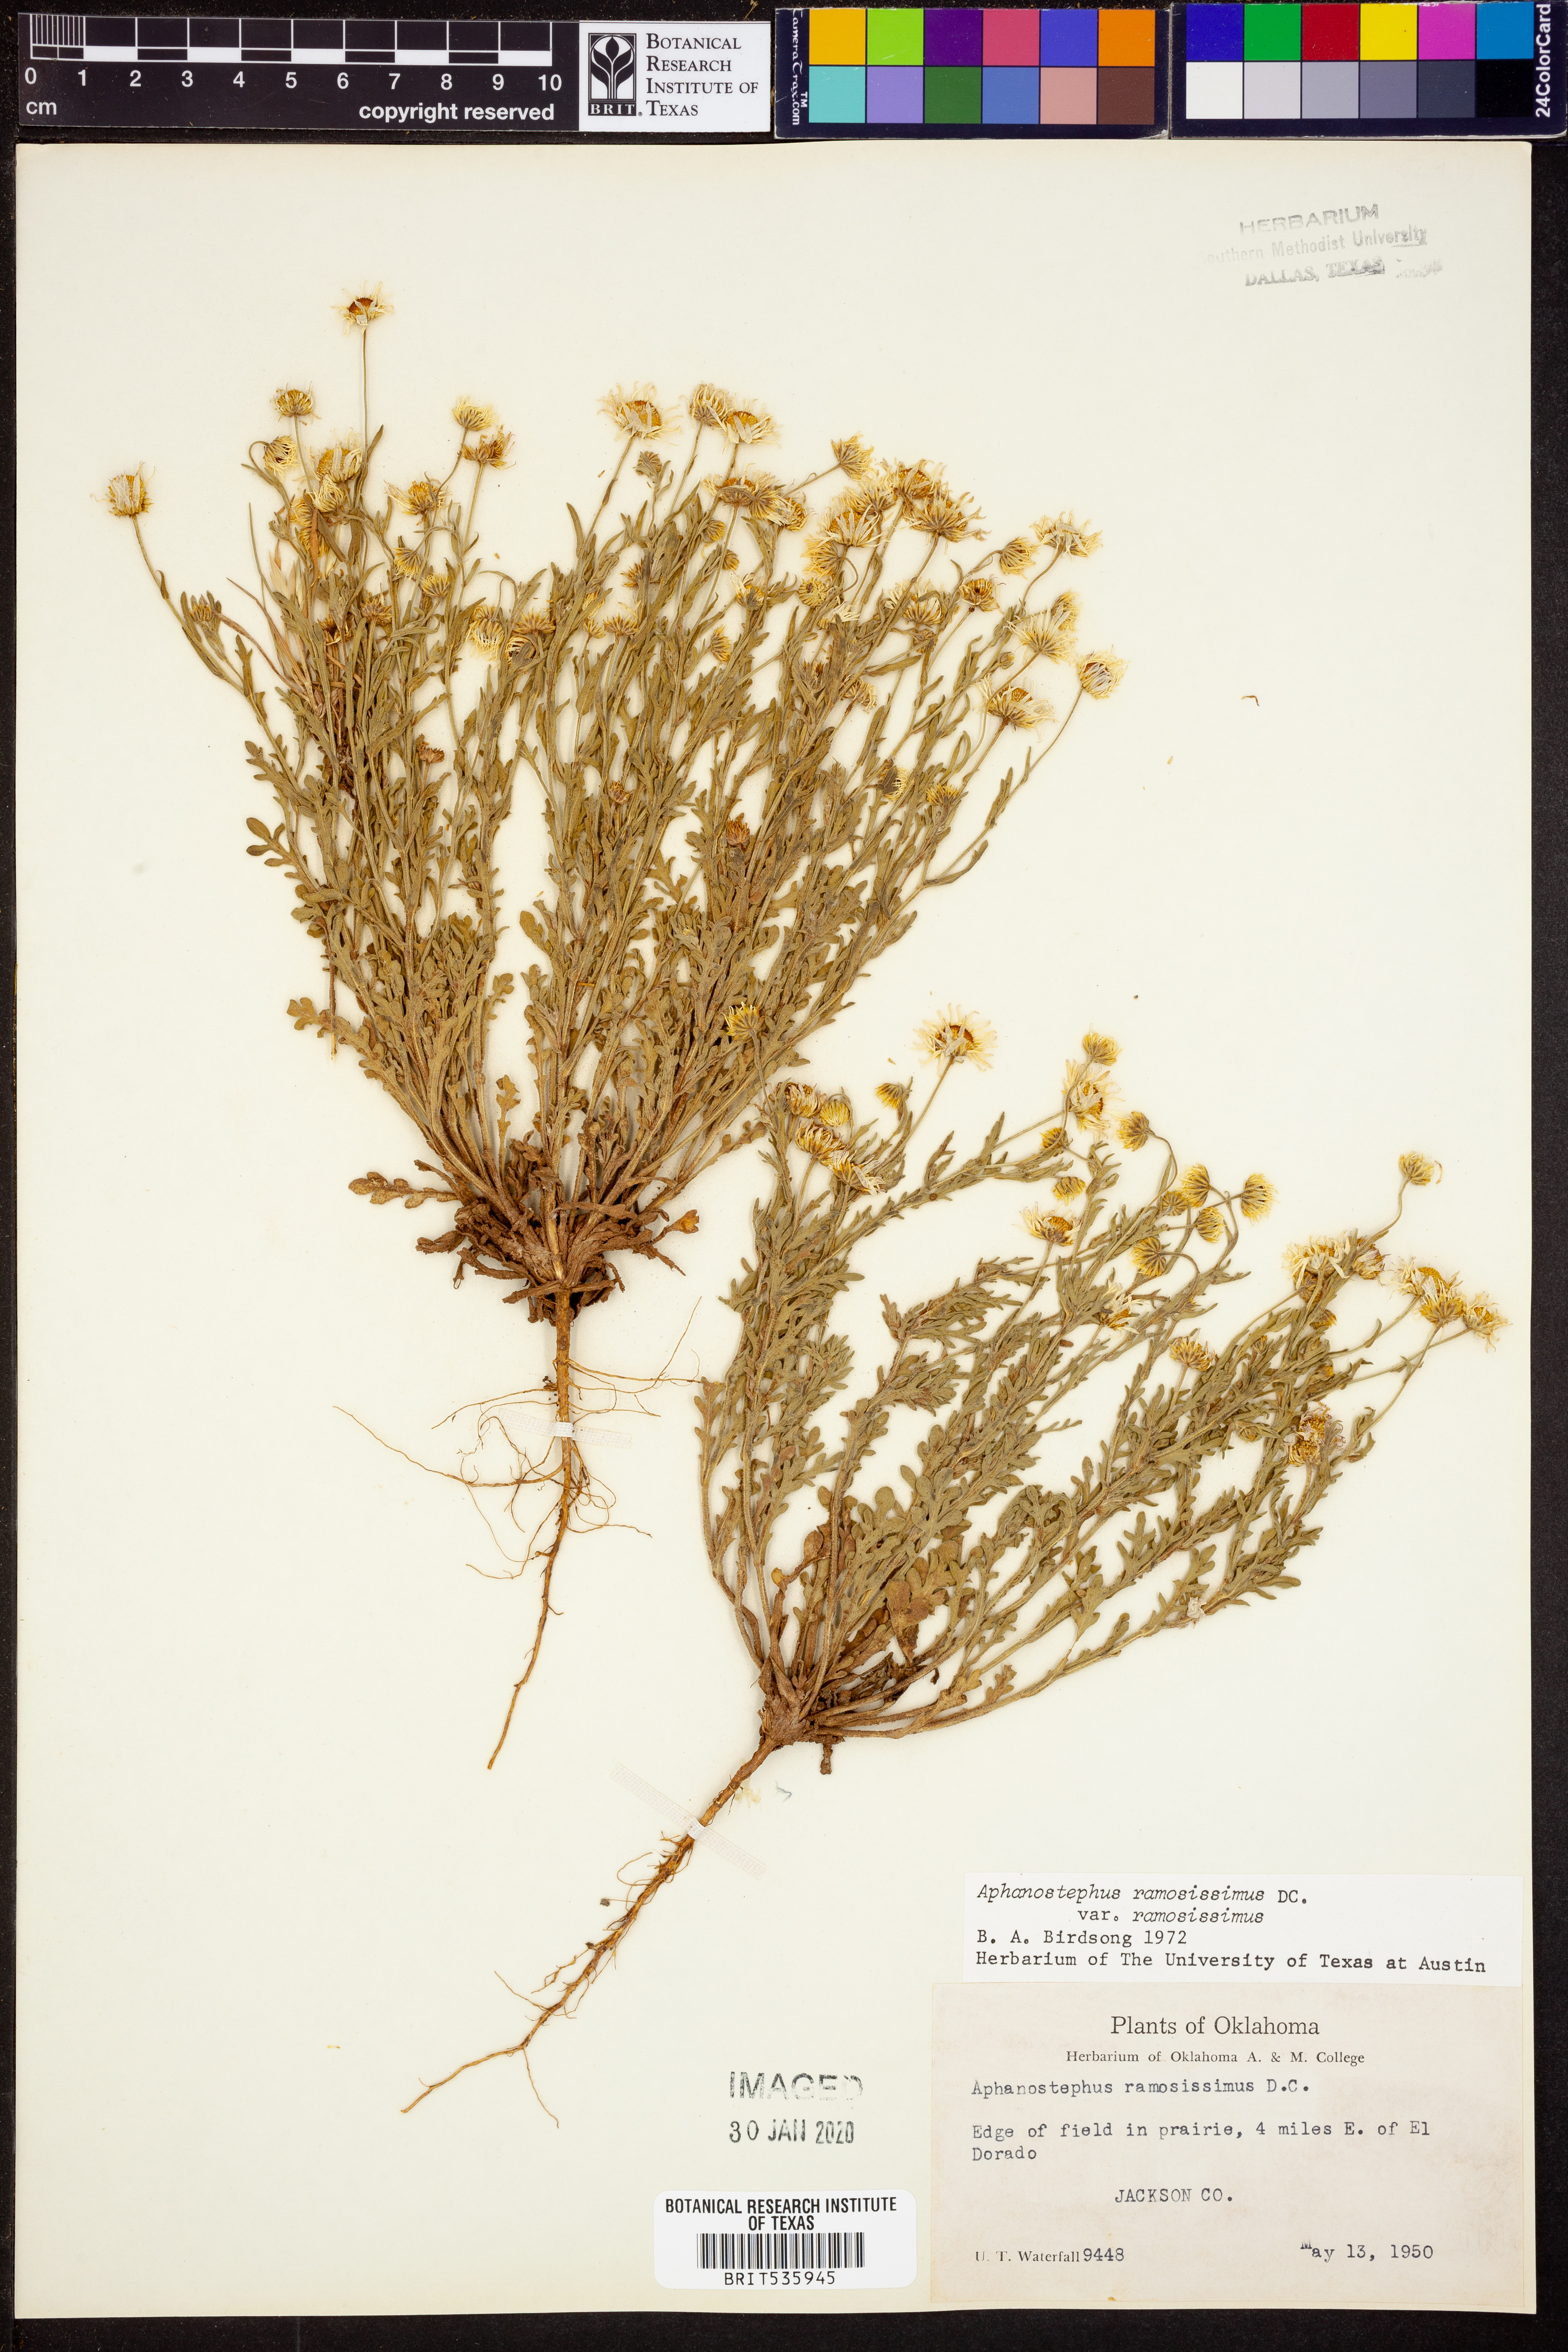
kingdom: Plantae
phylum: Tracheophyta
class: Magnoliopsida
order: Asterales
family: Asteraceae
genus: Aphanostephus
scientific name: Aphanostephus ramosissimus
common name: Plains lazy daisy
